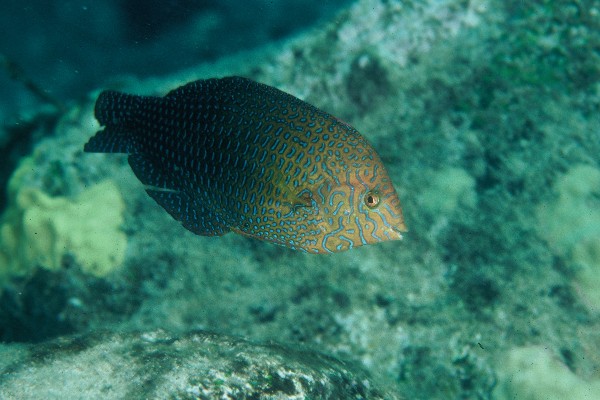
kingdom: Animalia
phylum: Chordata
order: Perciformes
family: Labridae
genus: Macropharyngodon
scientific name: Macropharyngodon geoffroy
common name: Shortnose wrasse
